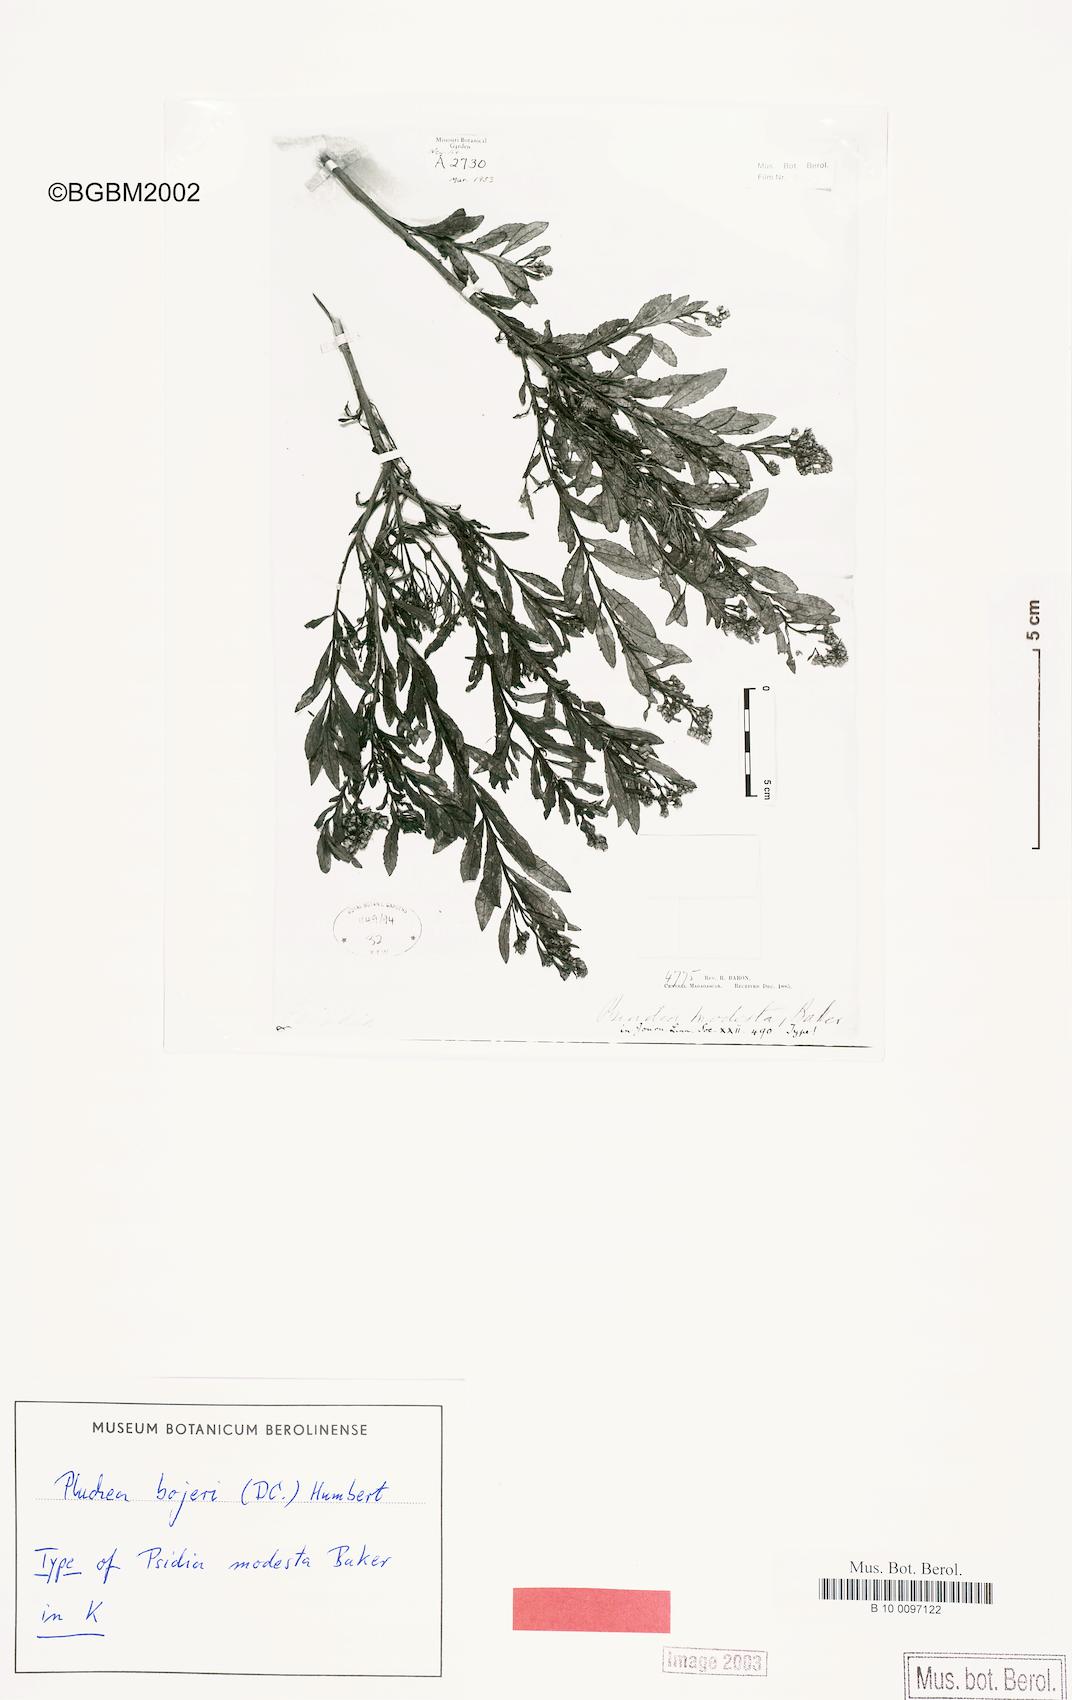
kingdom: Plantae
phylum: Tracheophyta
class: Magnoliopsida
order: Asterales
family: Asteraceae
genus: Pluchea
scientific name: Pluchea bojeri
